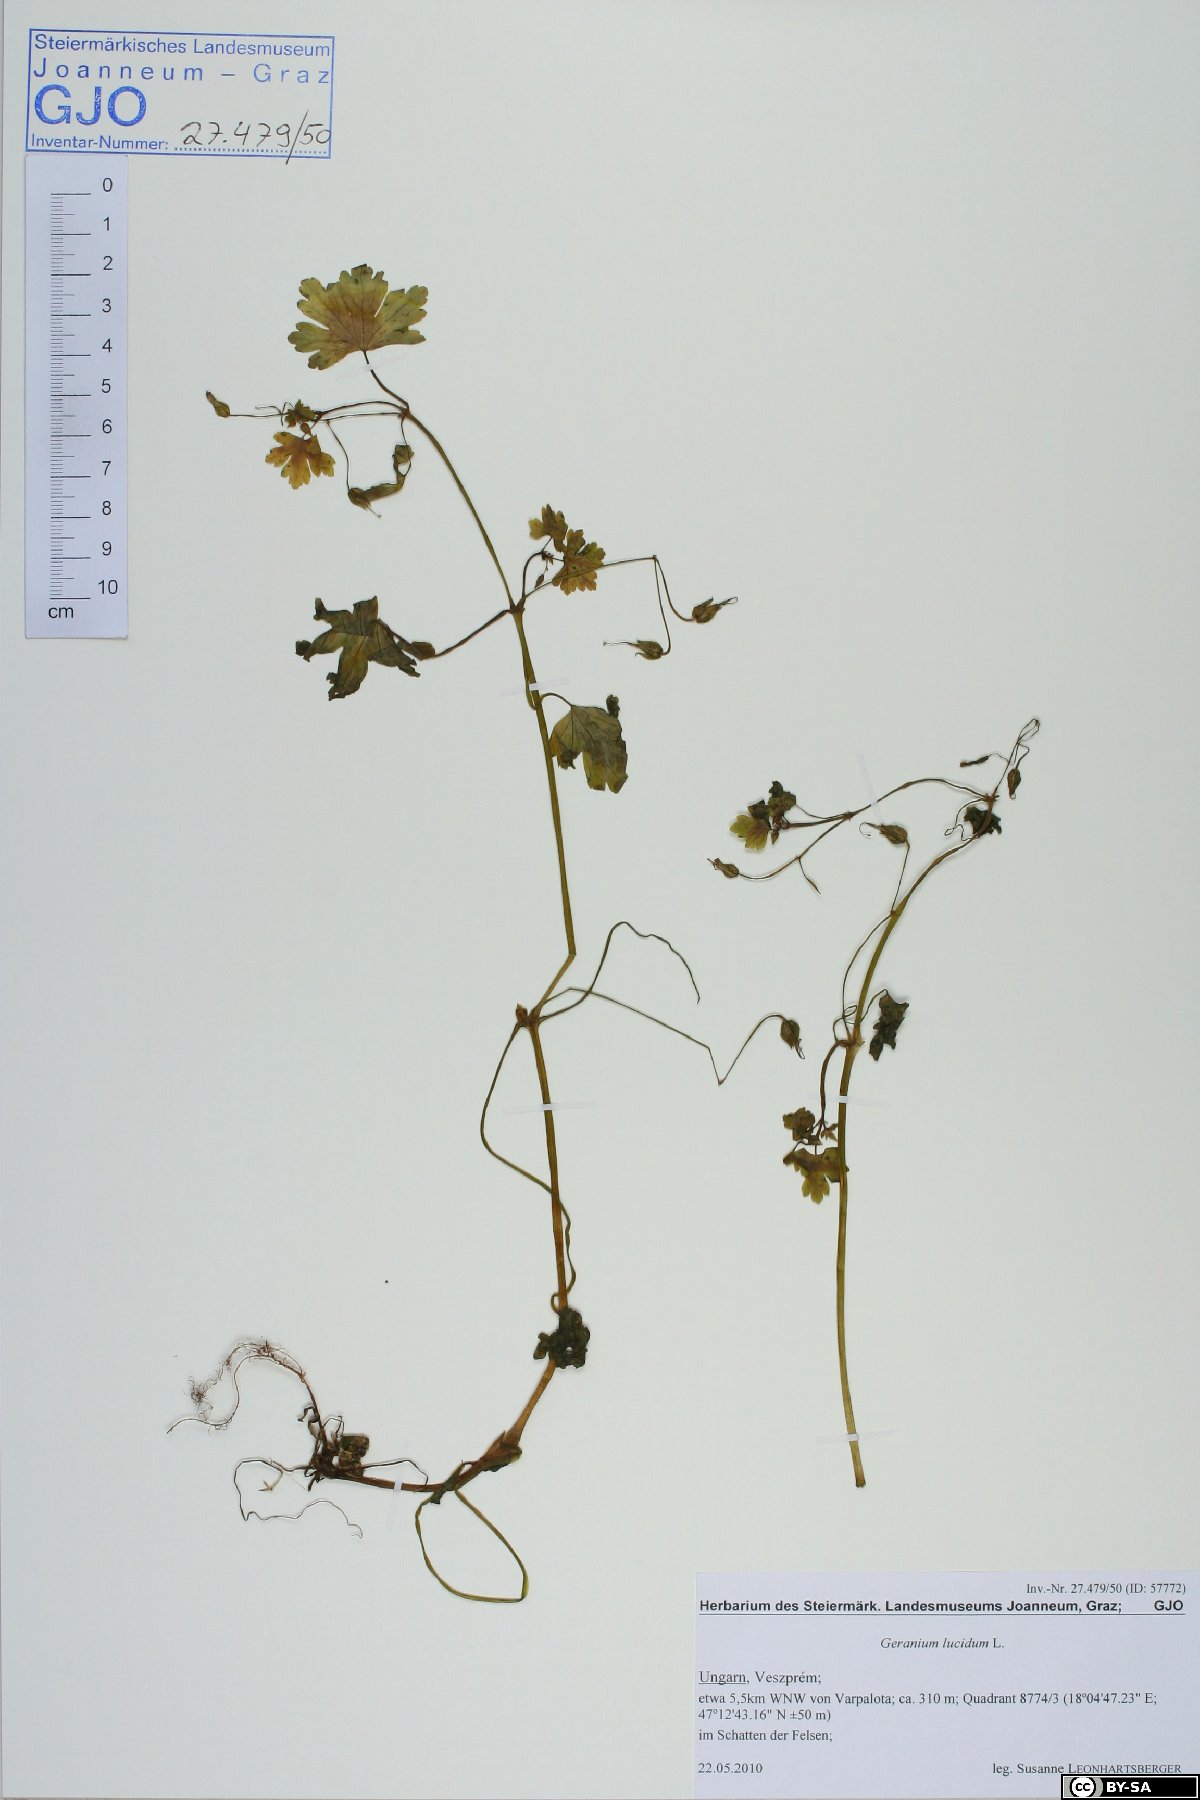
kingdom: Plantae
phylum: Tracheophyta
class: Magnoliopsida
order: Geraniales
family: Geraniaceae
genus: Geranium
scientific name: Geranium lucidum
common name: Shining crane's-bill
